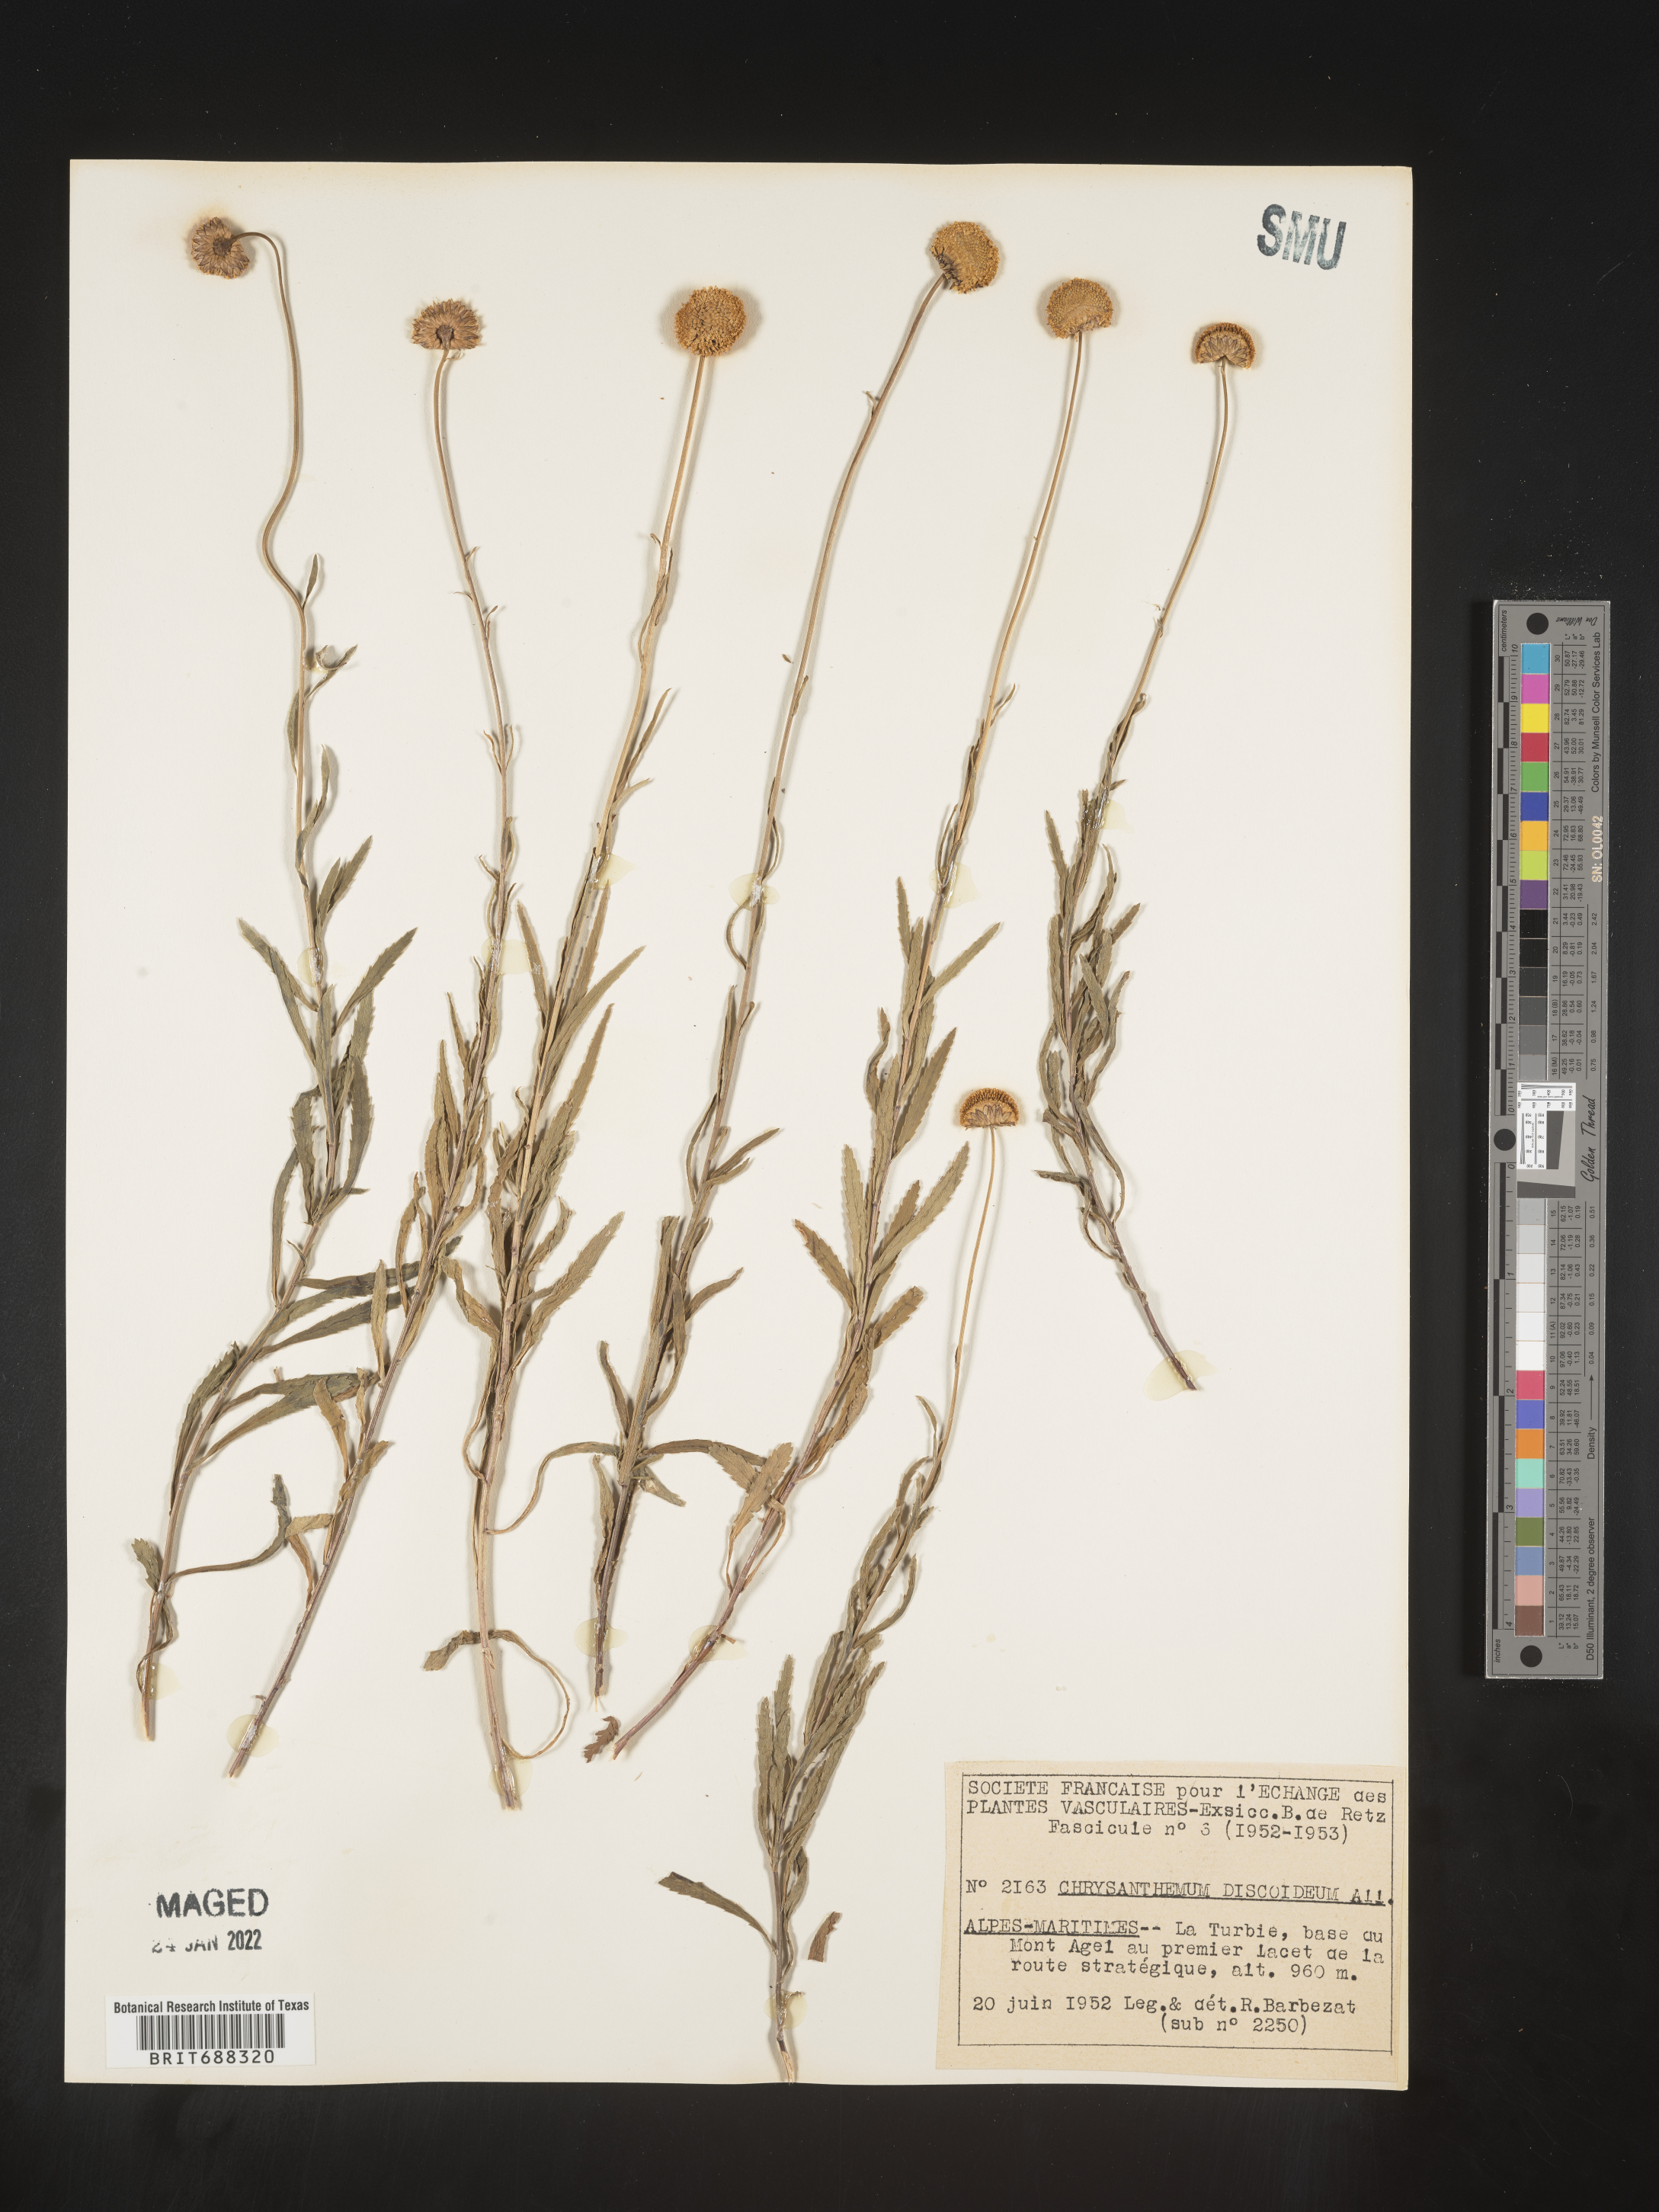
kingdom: Plantae
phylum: Tracheophyta
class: Magnoliopsida
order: Asterales
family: Asteraceae
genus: Chrysanthemum
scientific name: Chrysanthemum
